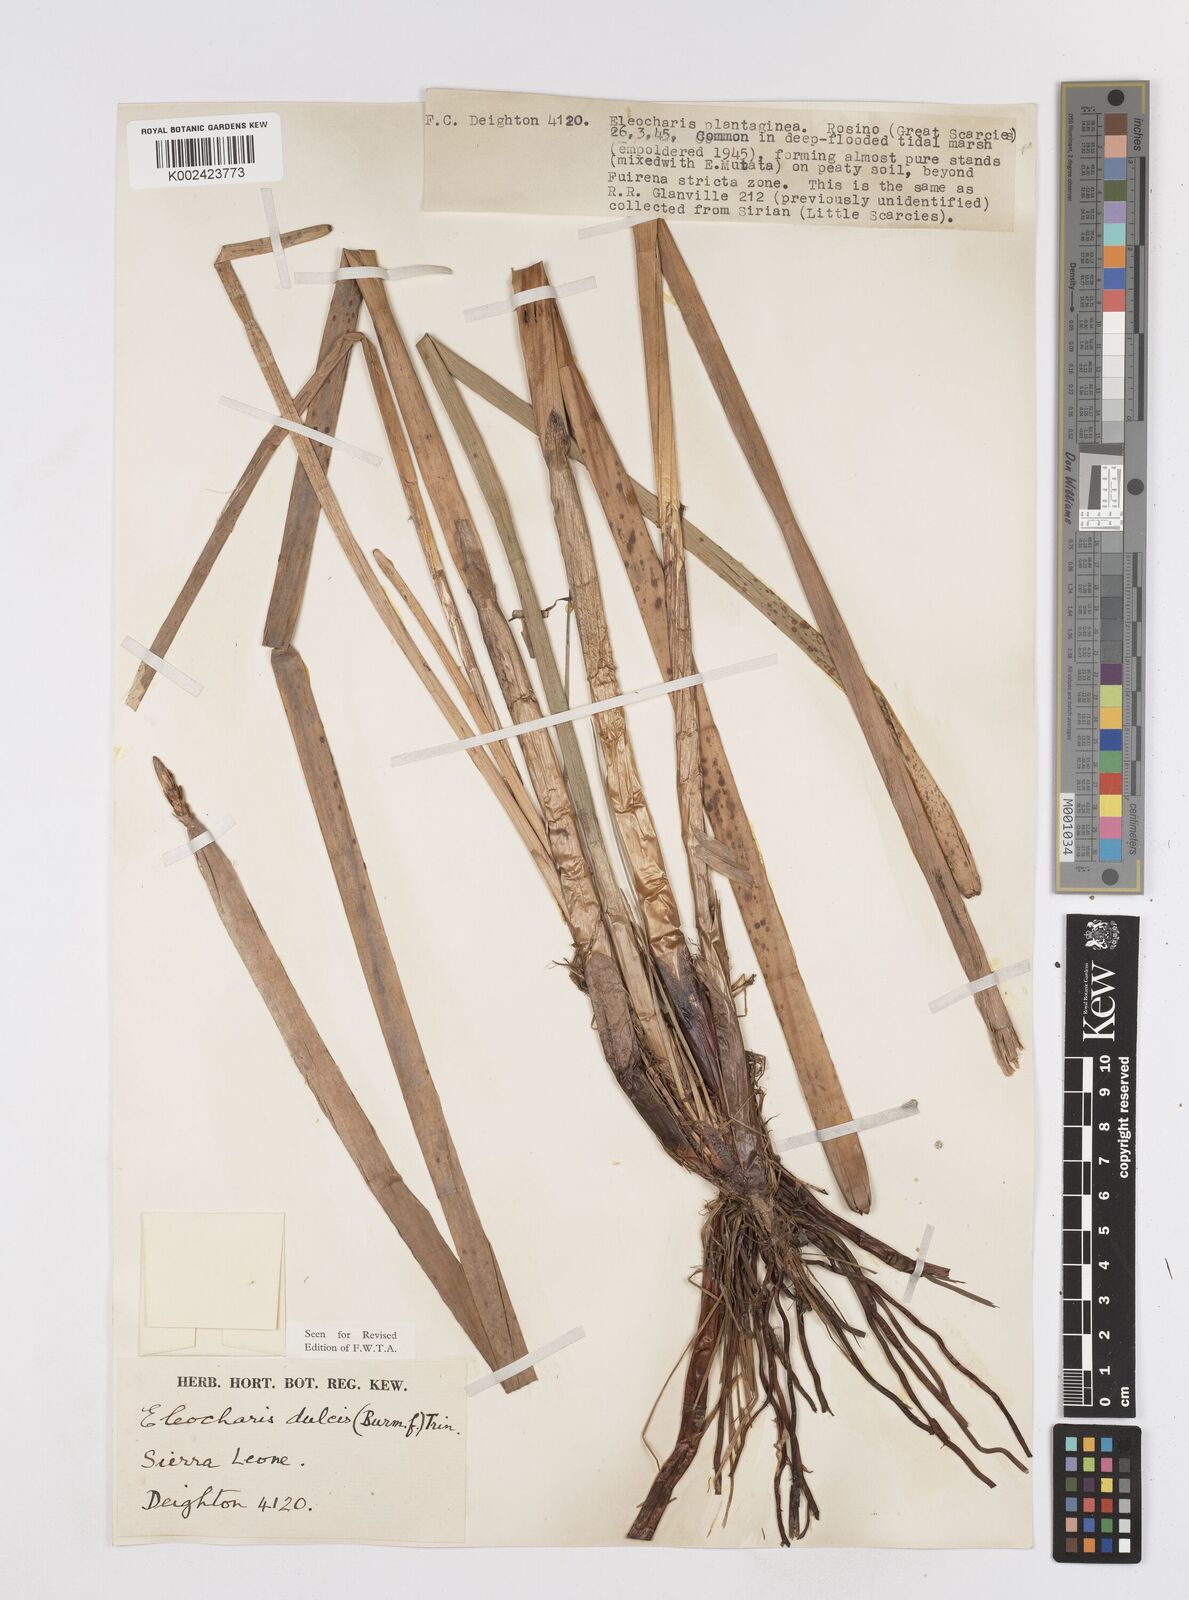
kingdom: Plantae
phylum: Tracheophyta
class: Liliopsida
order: Poales
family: Cyperaceae
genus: Eleocharis
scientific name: Eleocharis dulcis
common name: Chinese water chestnut
